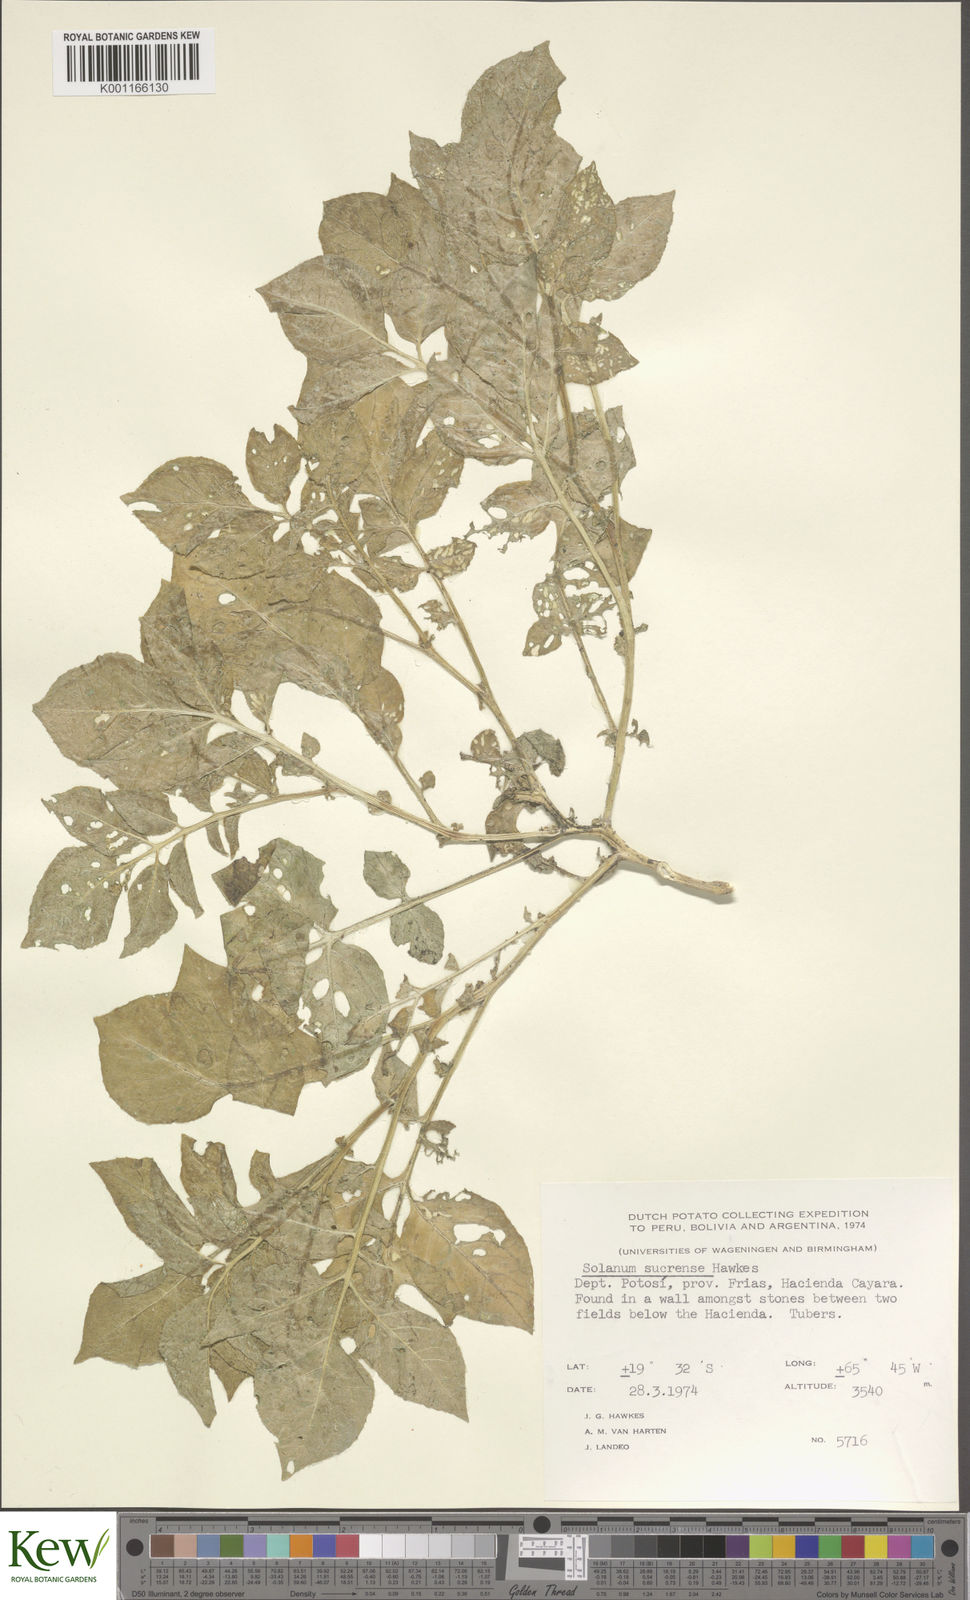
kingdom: Plantae
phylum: Tracheophyta
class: Magnoliopsida
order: Solanales
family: Solanaceae
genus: Solanum
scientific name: Solanum brevicaule
